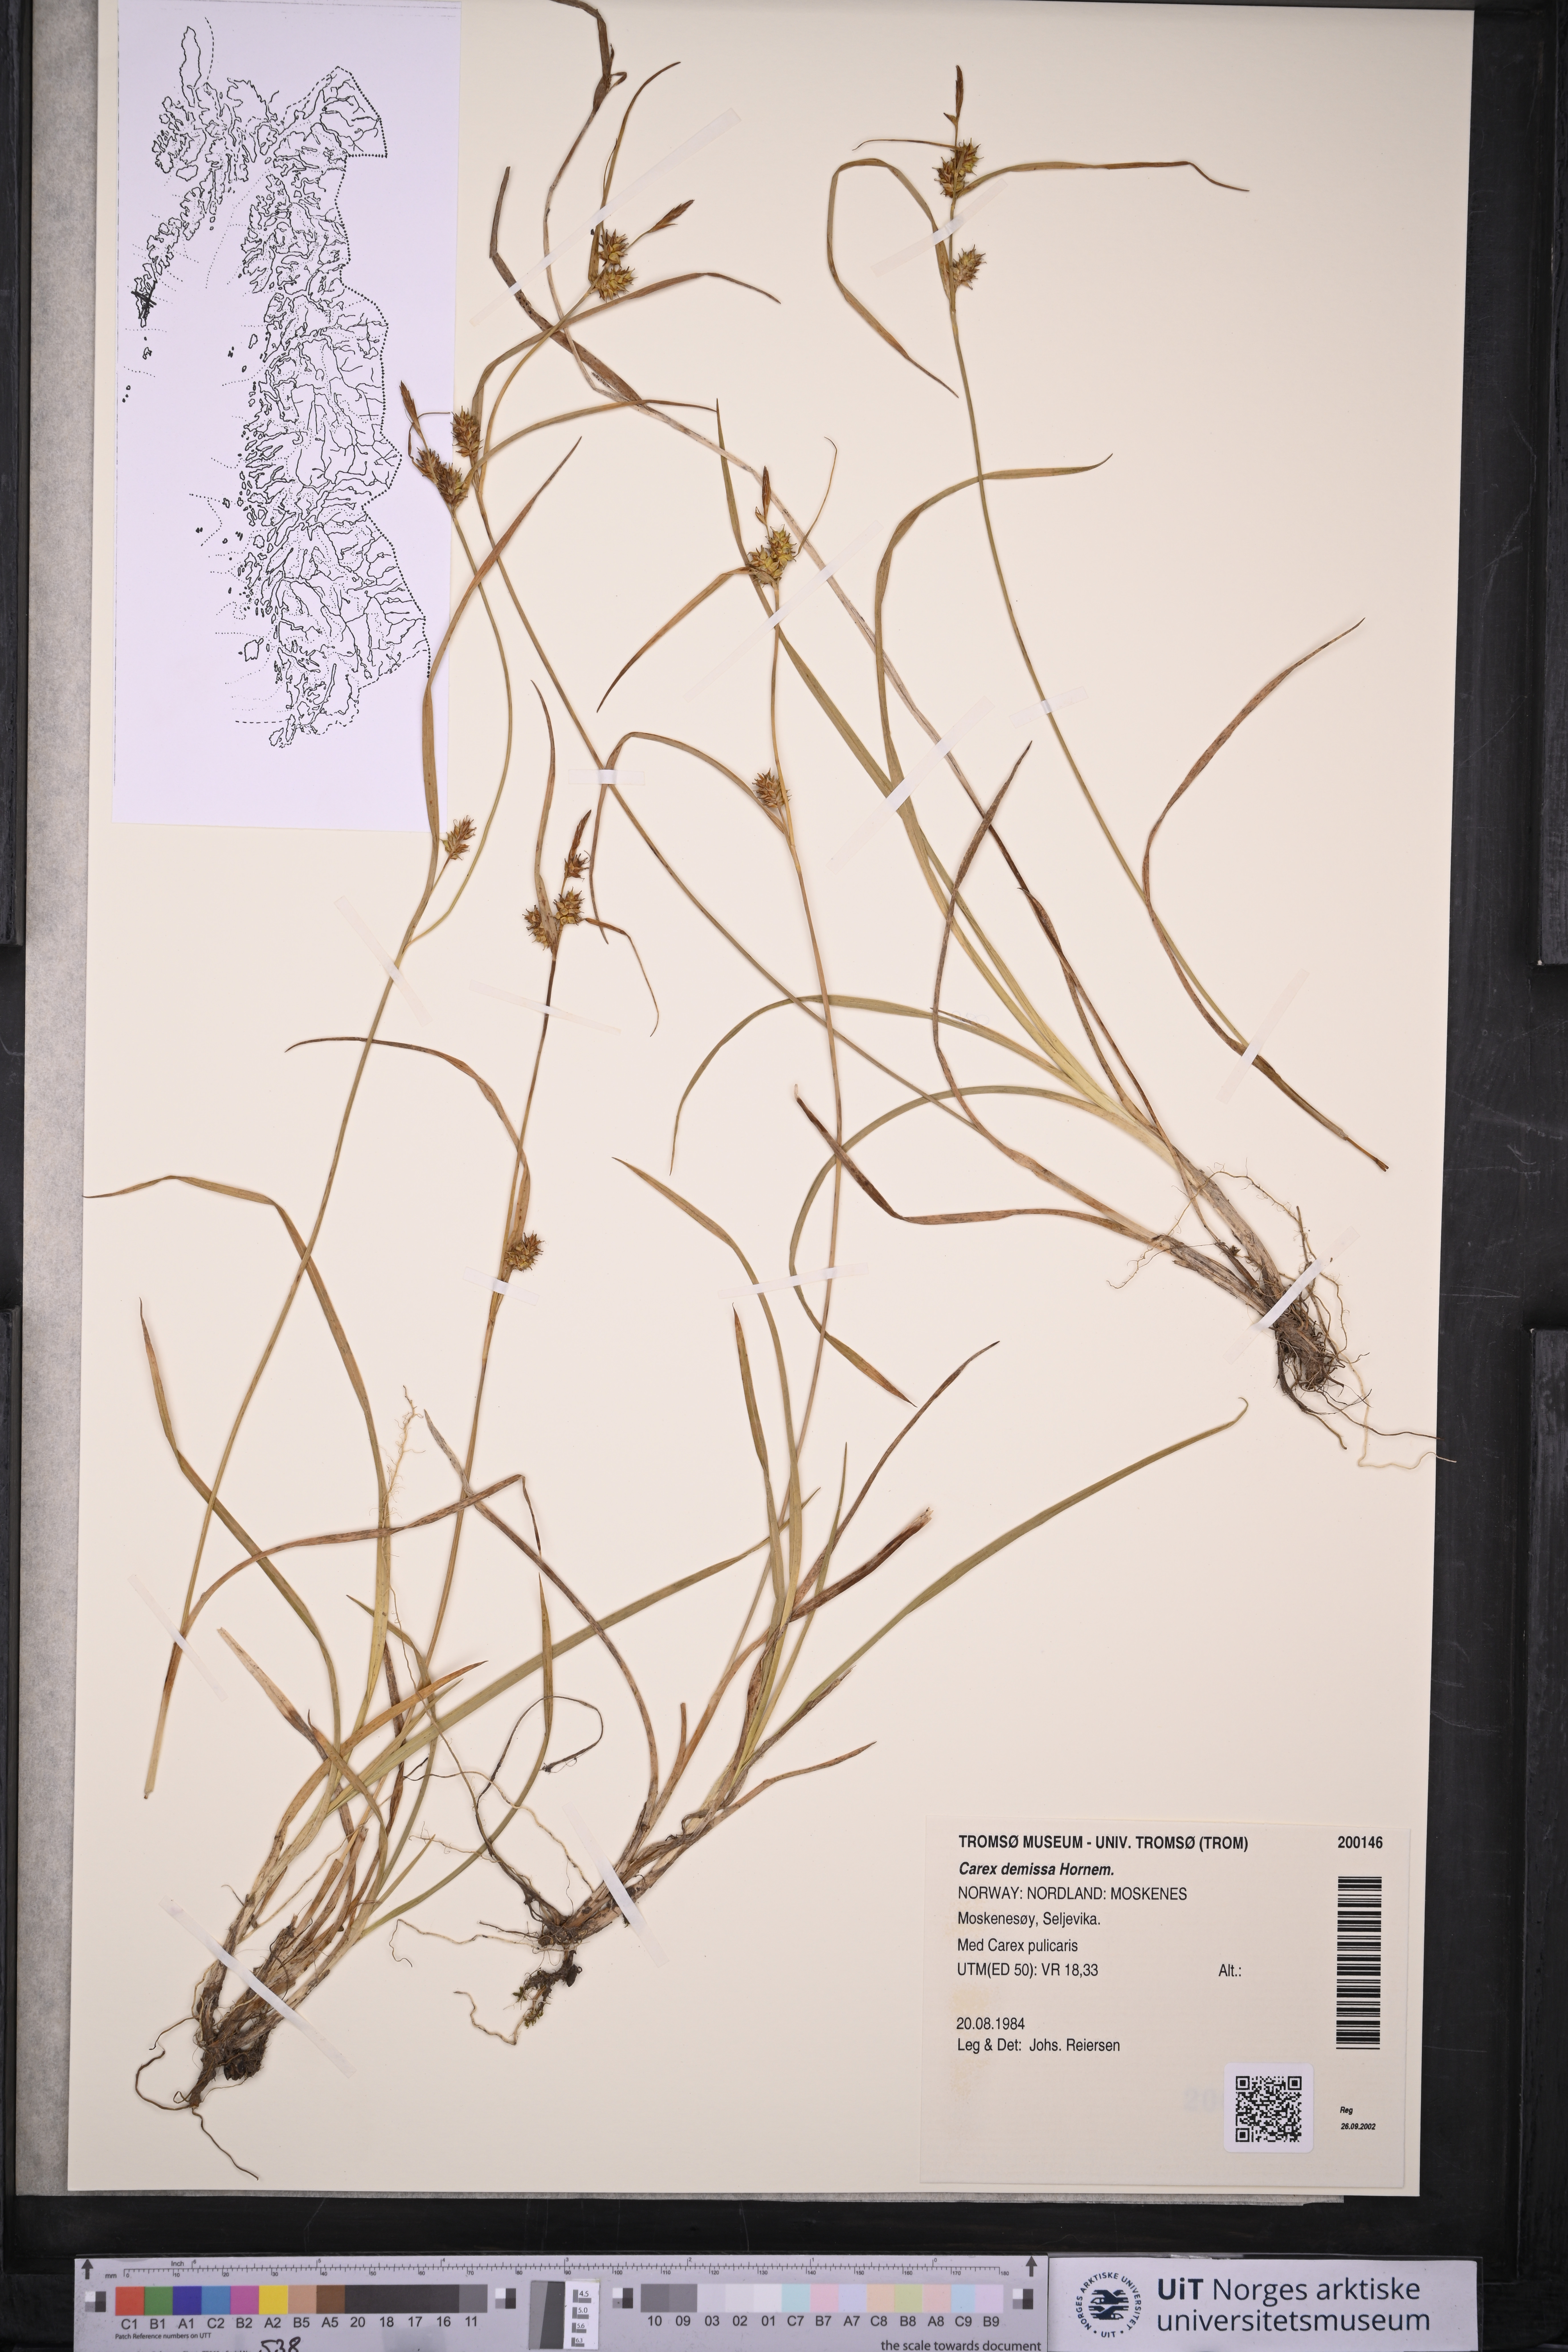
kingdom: Plantae
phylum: Tracheophyta
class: Liliopsida
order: Poales
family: Cyperaceae
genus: Carex
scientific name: Carex demissa
